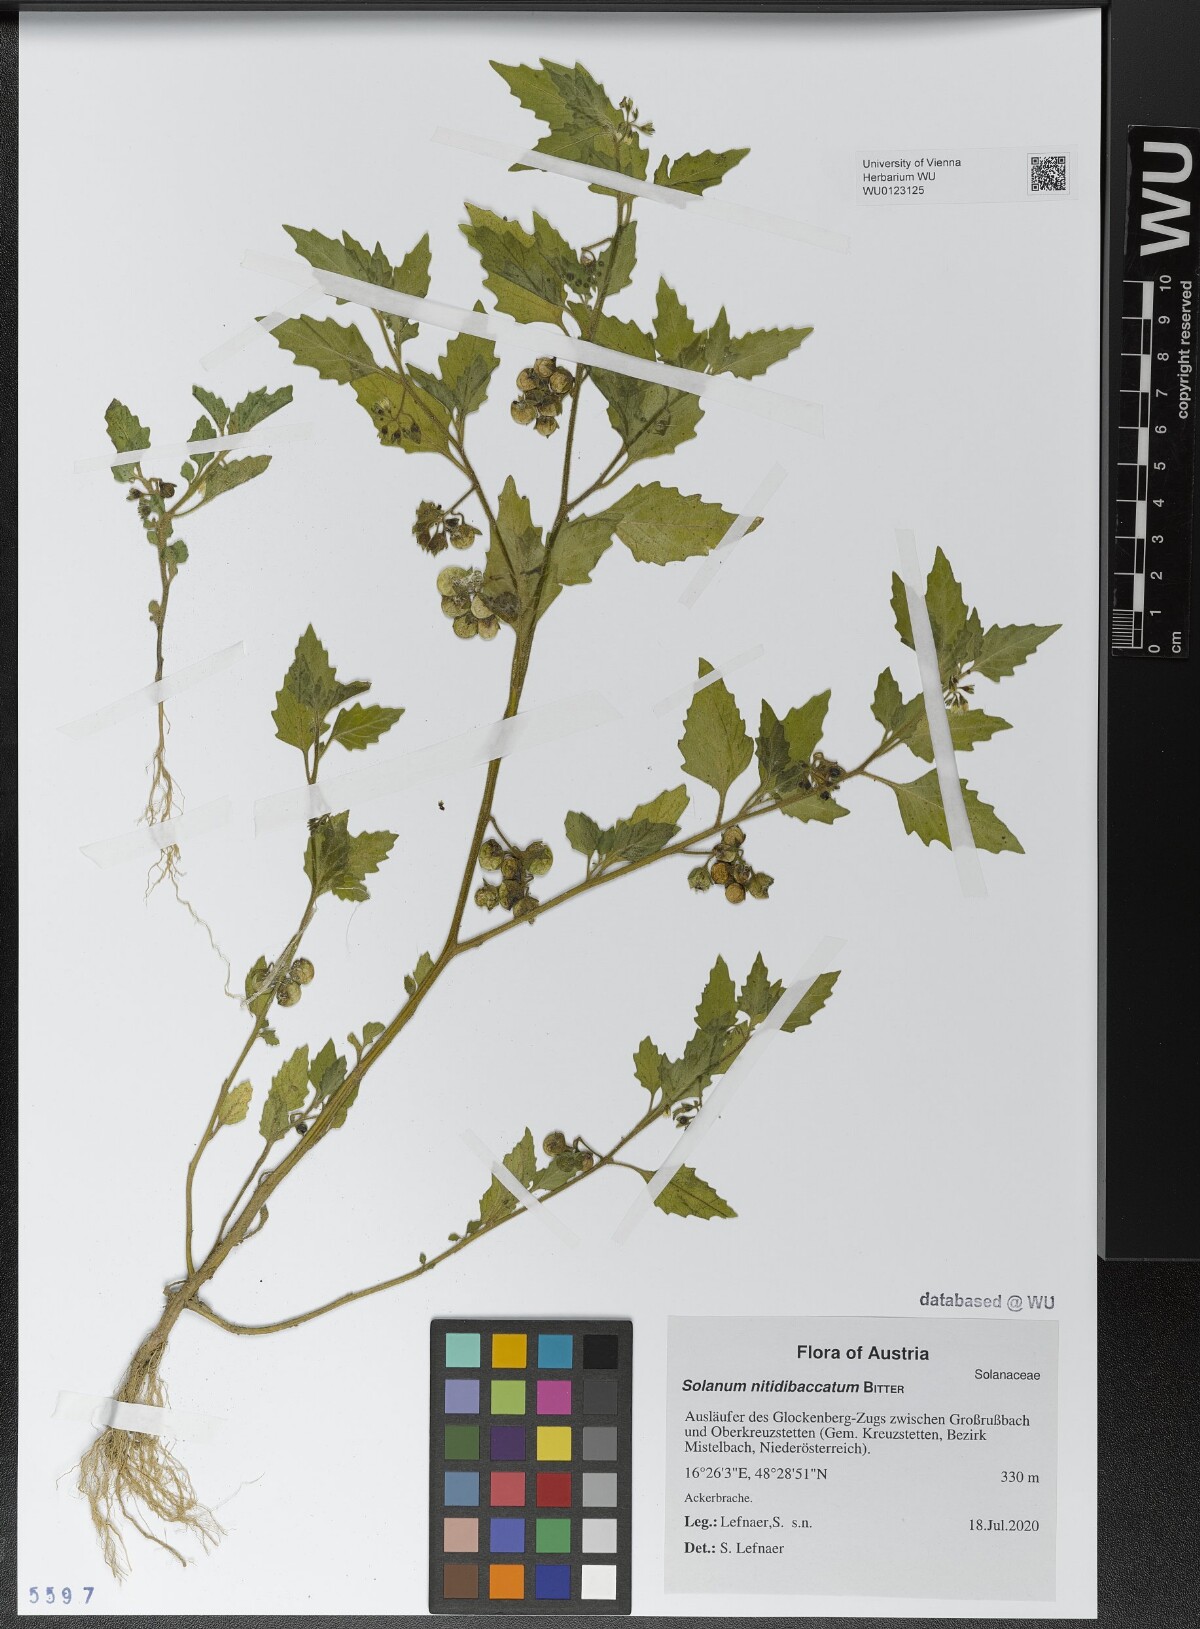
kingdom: Plantae
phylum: Tracheophyta
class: Magnoliopsida
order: Solanales
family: Solanaceae
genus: Solanum
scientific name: Solanum nitidibaccatum
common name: Hairy nightshade
